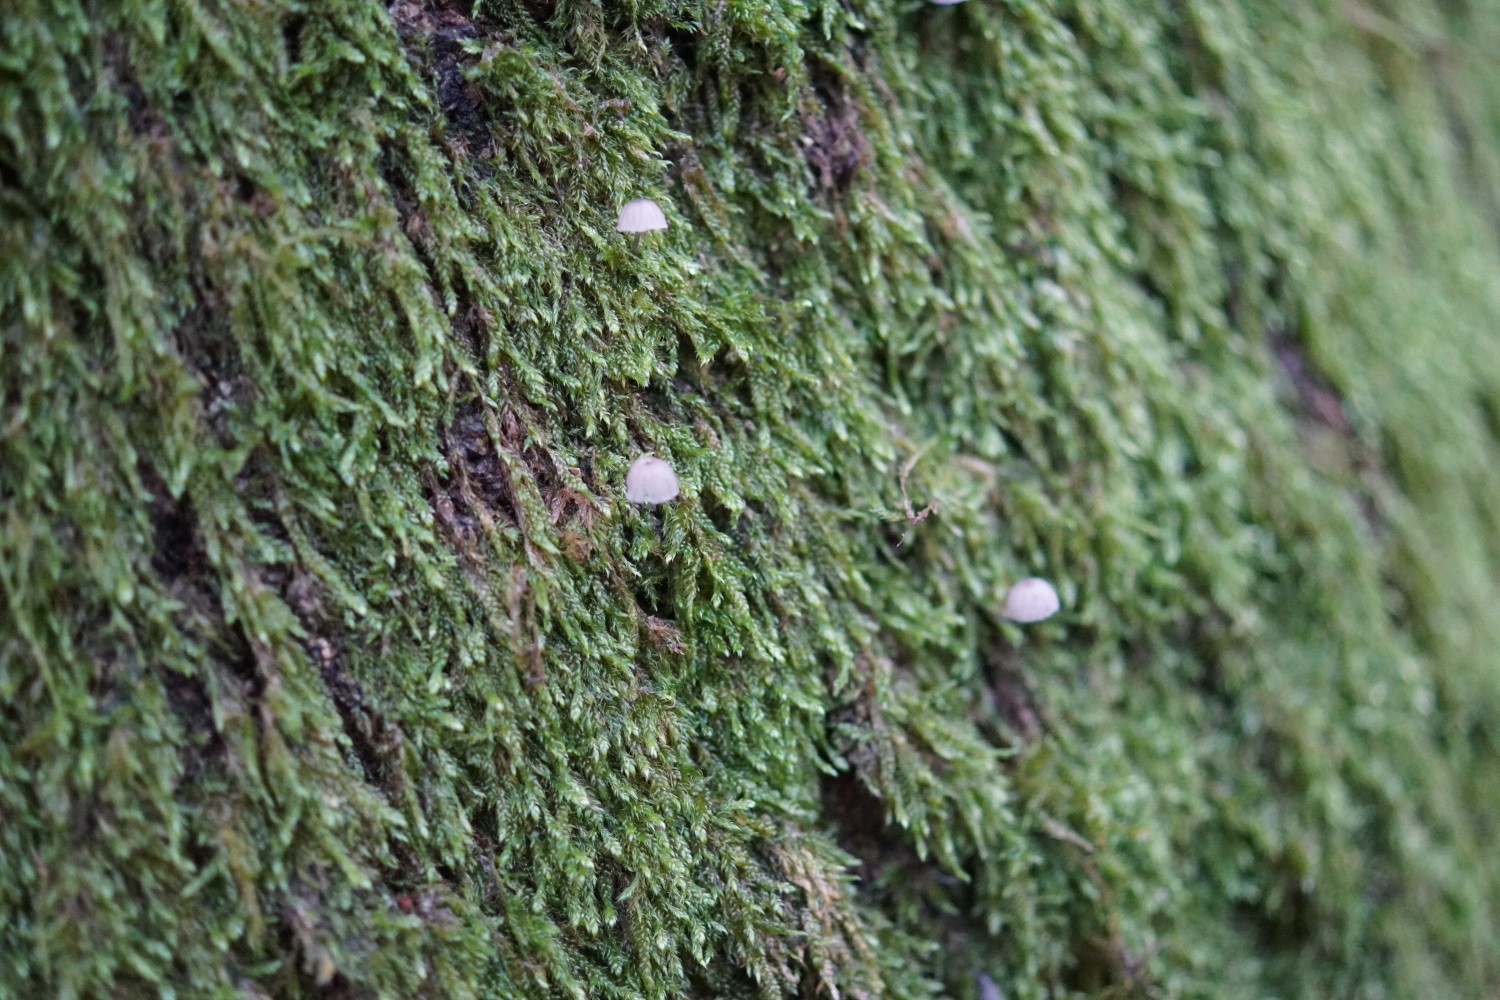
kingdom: Fungi
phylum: Basidiomycota
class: Agaricomycetes
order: Agaricales
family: Mycenaceae
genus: Mycena
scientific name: Mycena pseudocorticola
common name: gråblå bark-huesvamp
